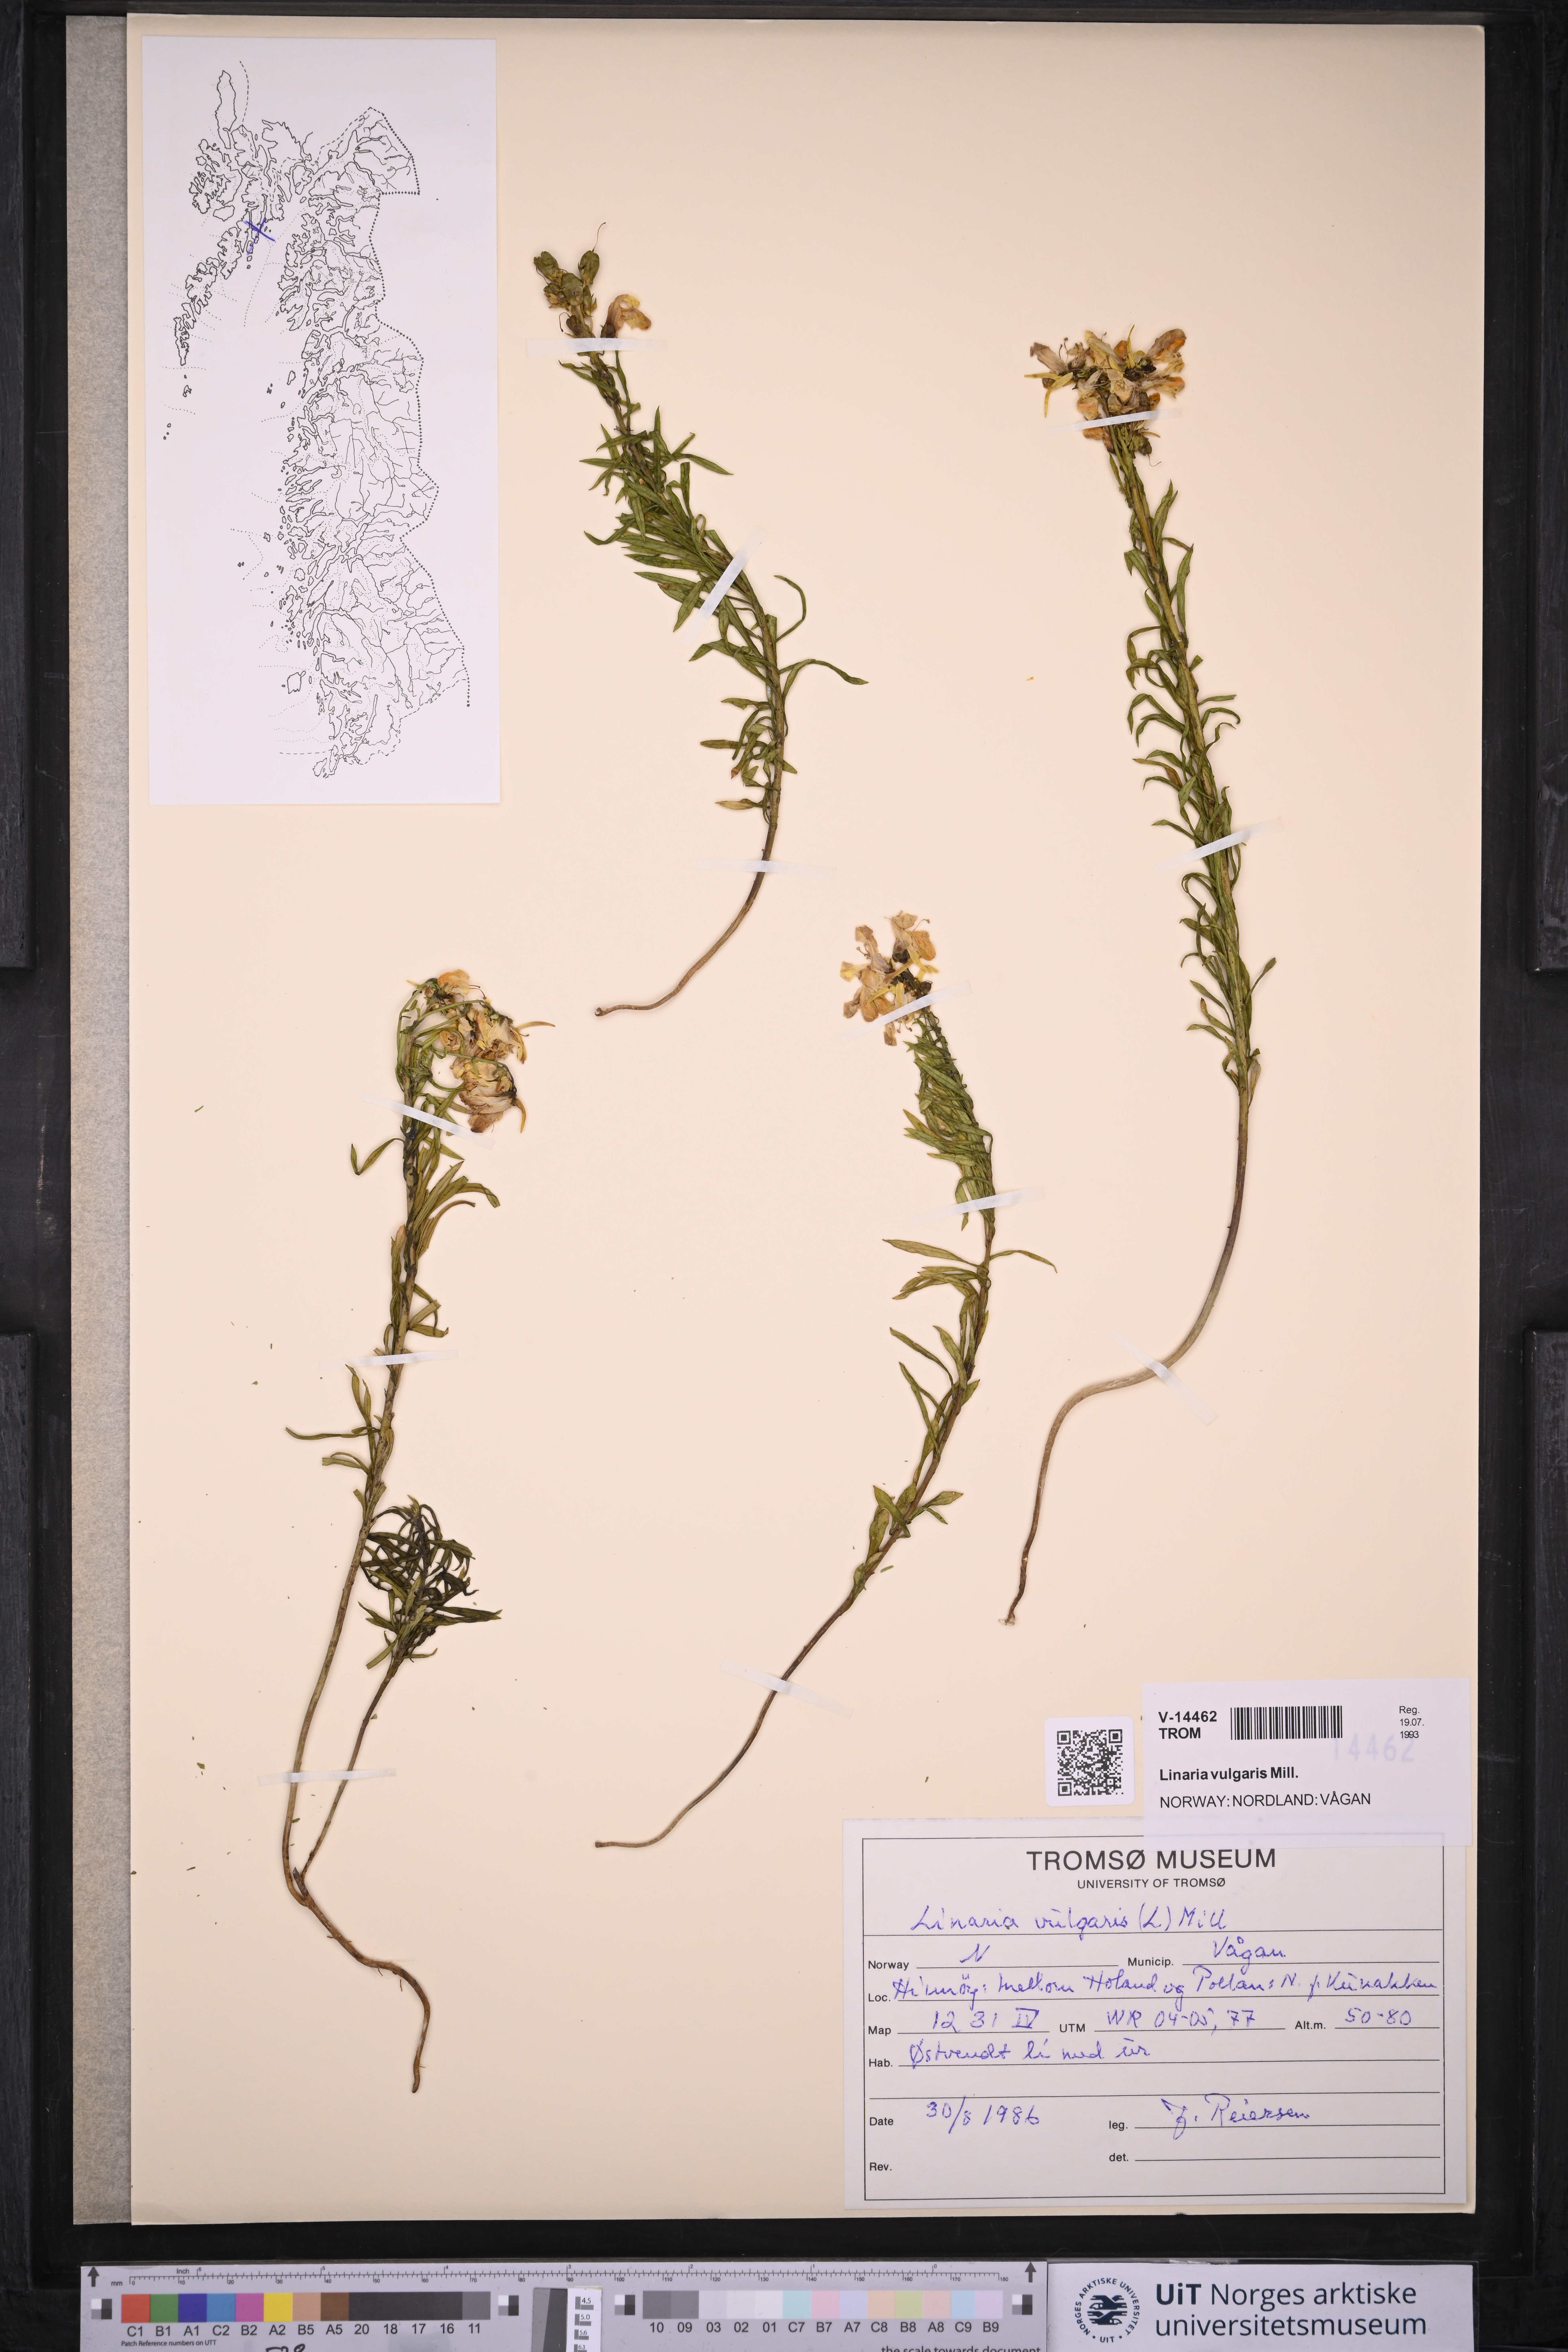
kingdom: Plantae
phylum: Tracheophyta
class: Magnoliopsida
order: Lamiales
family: Plantaginaceae
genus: Linaria
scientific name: Linaria vulgaris
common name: Butter and eggs
